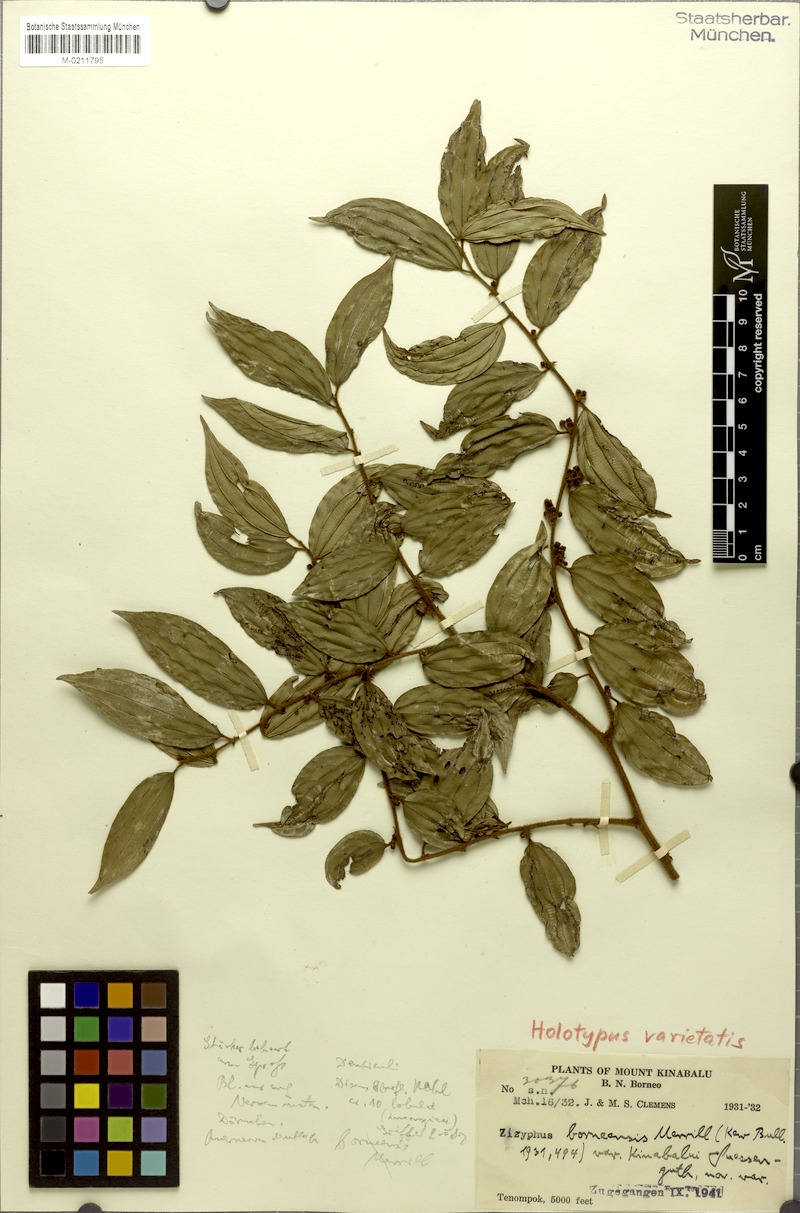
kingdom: Plantae
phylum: Tracheophyta
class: Magnoliopsida
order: Rosales
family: Rhamnaceae
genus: Ziziphus
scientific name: Ziziphus havilandii
